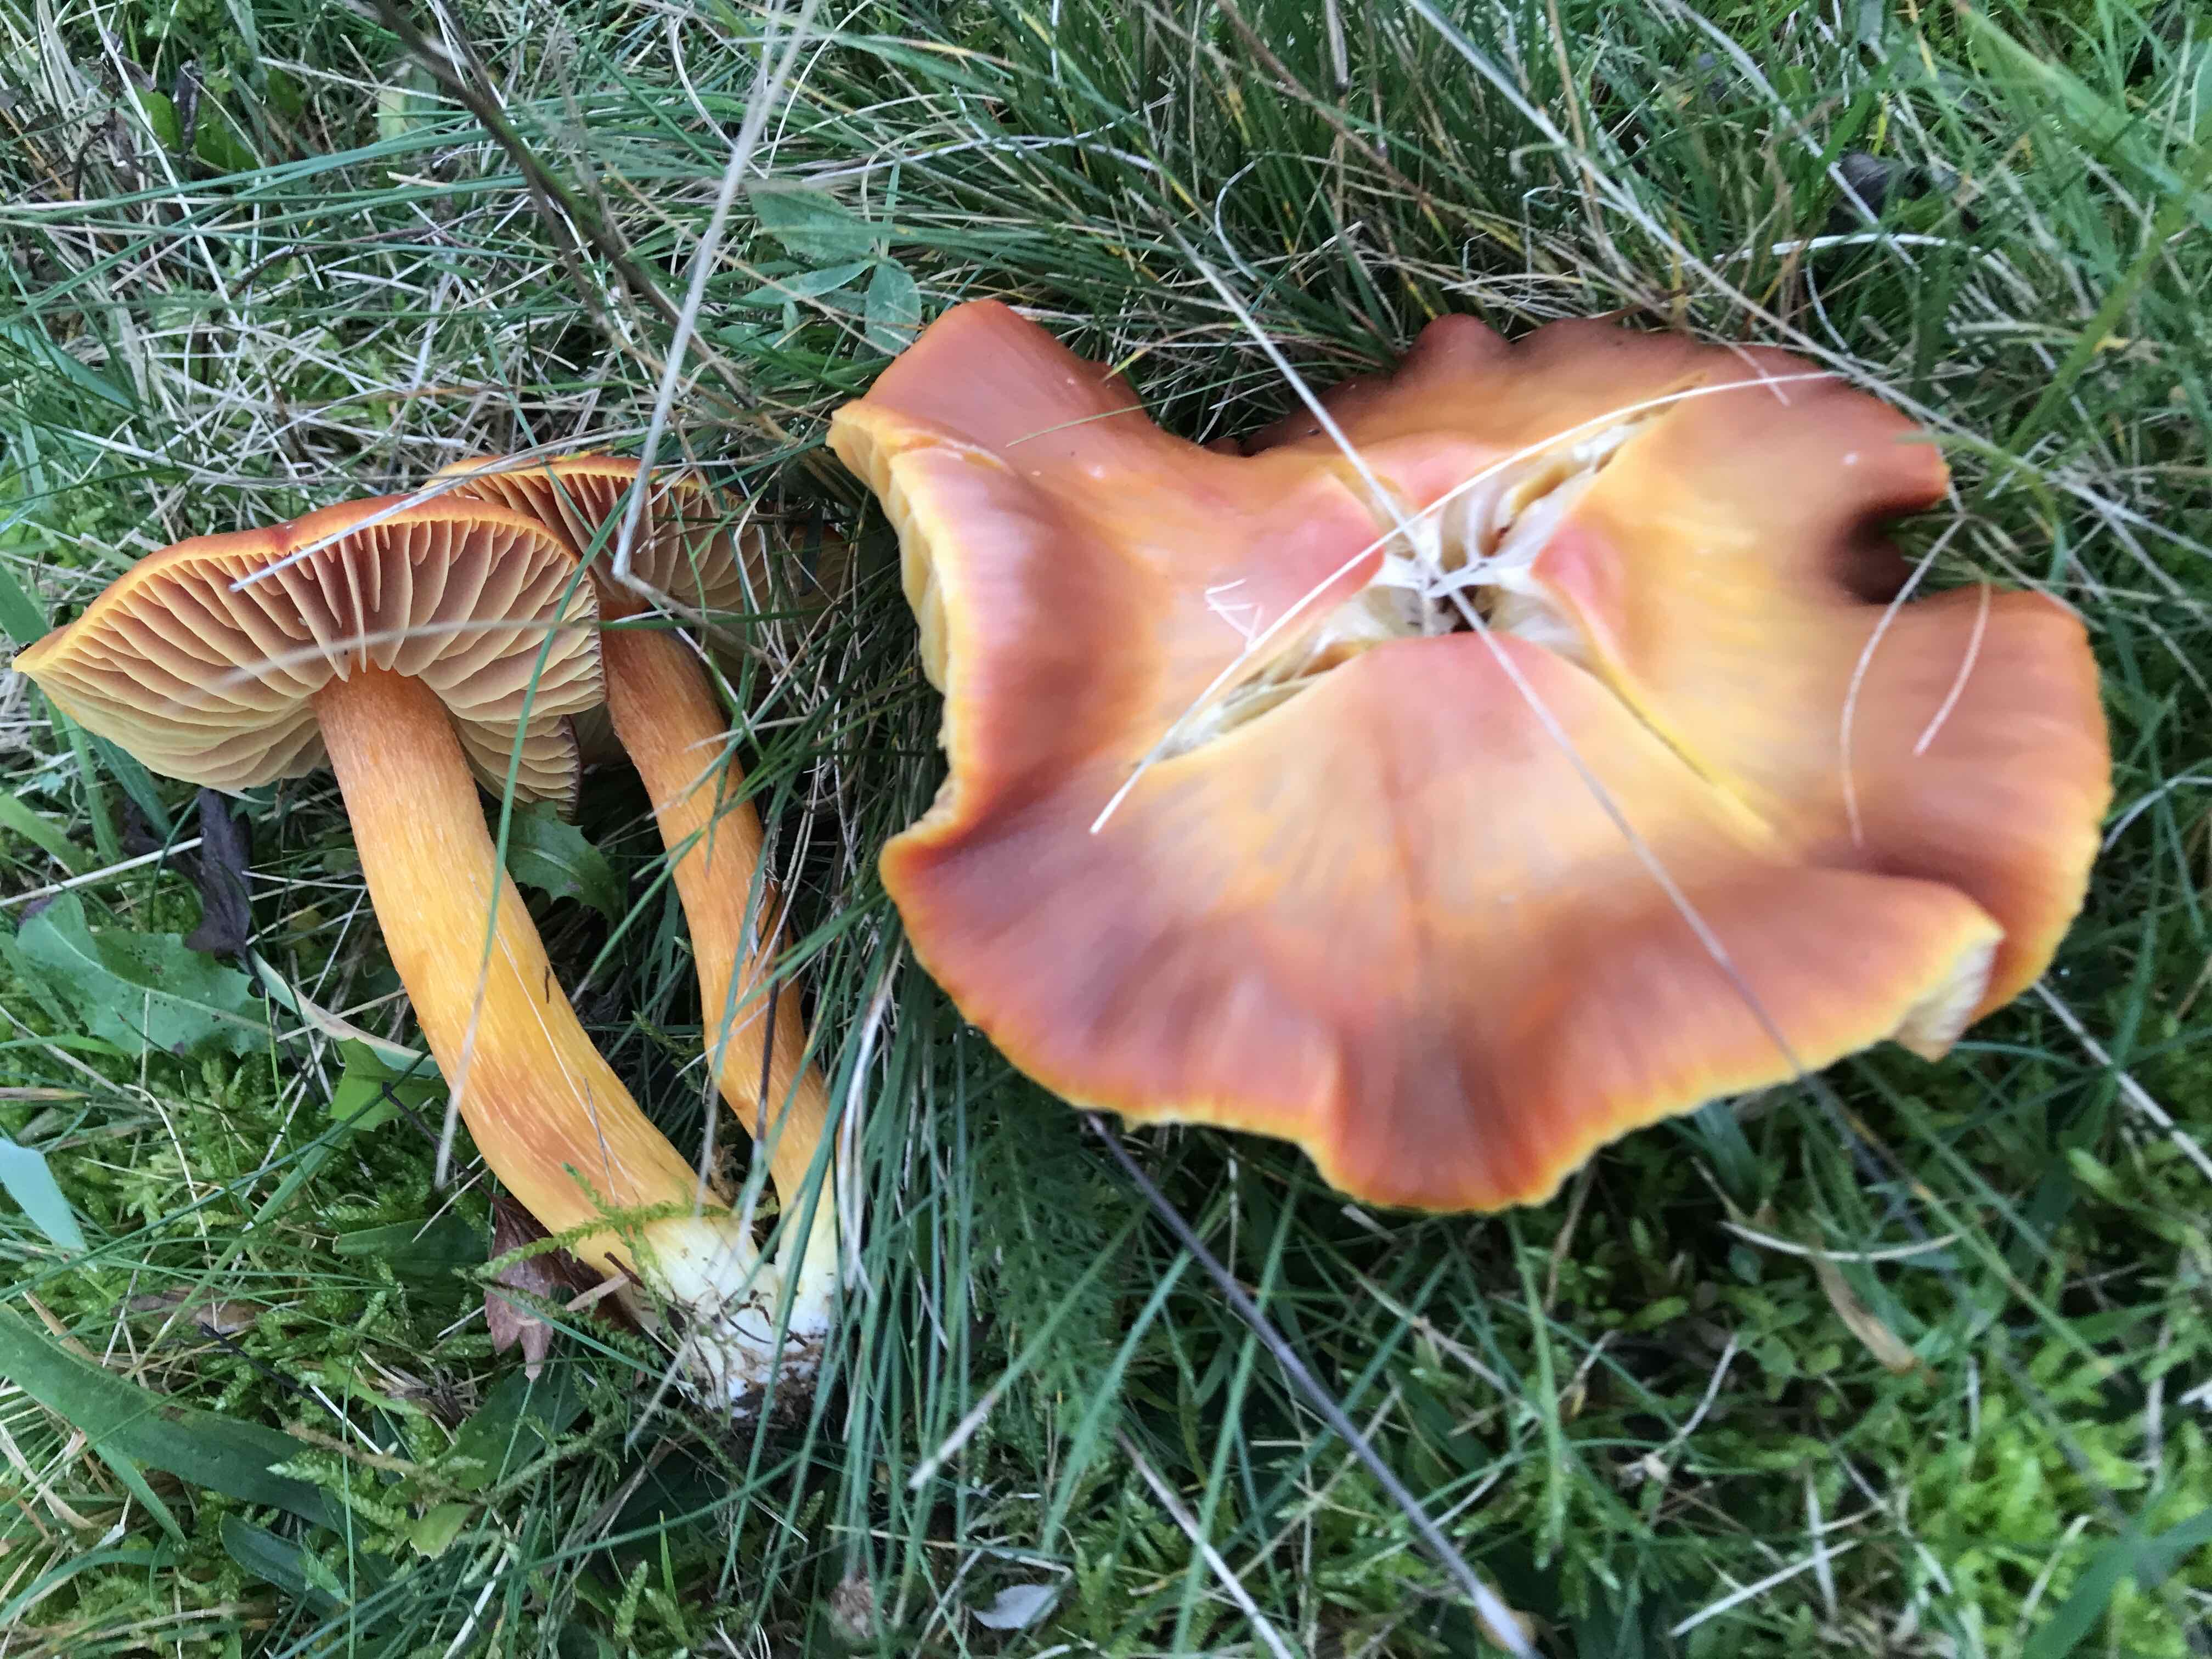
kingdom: Fungi
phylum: Basidiomycota
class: Agaricomycetes
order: Agaricales
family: Hygrophoraceae
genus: Hygrocybe
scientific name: Hygrocybe punicea
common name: skarlagen-vokshat
